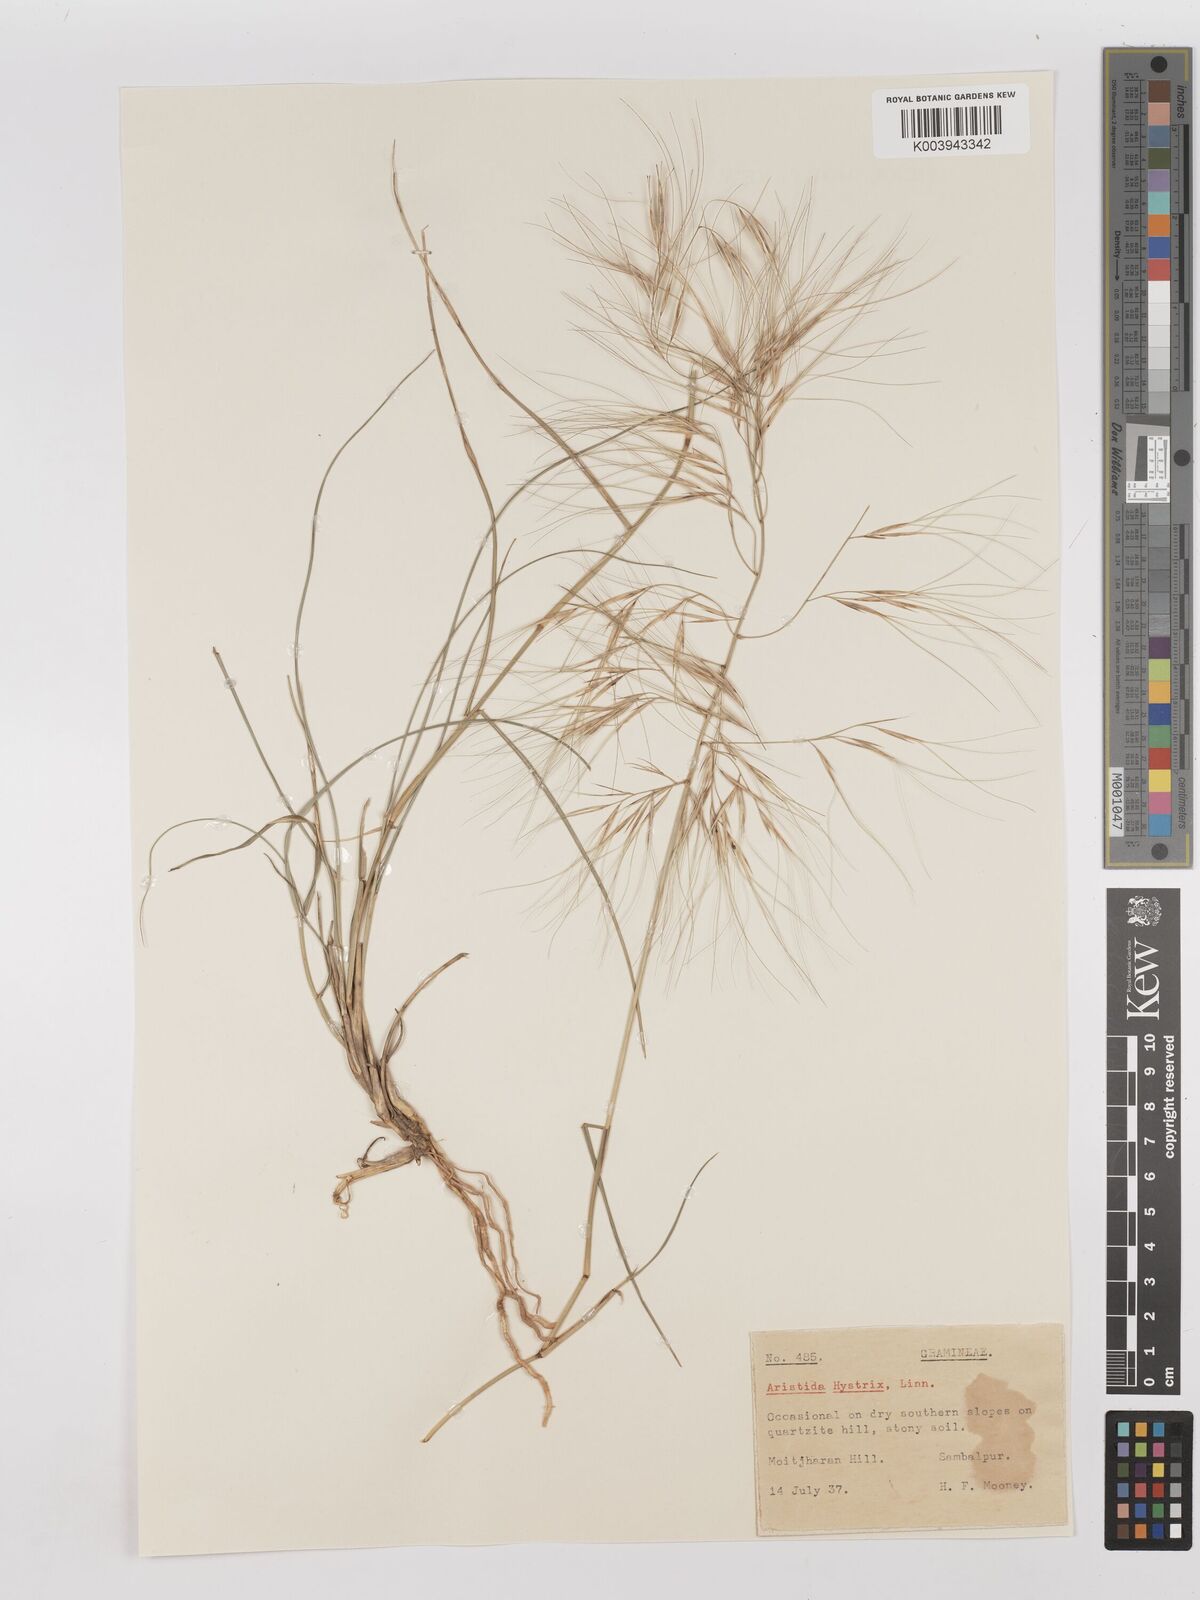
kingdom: Plantae
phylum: Tracheophyta
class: Liliopsida
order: Poales
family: Poaceae
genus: Aristida
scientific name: Aristida hystrix
